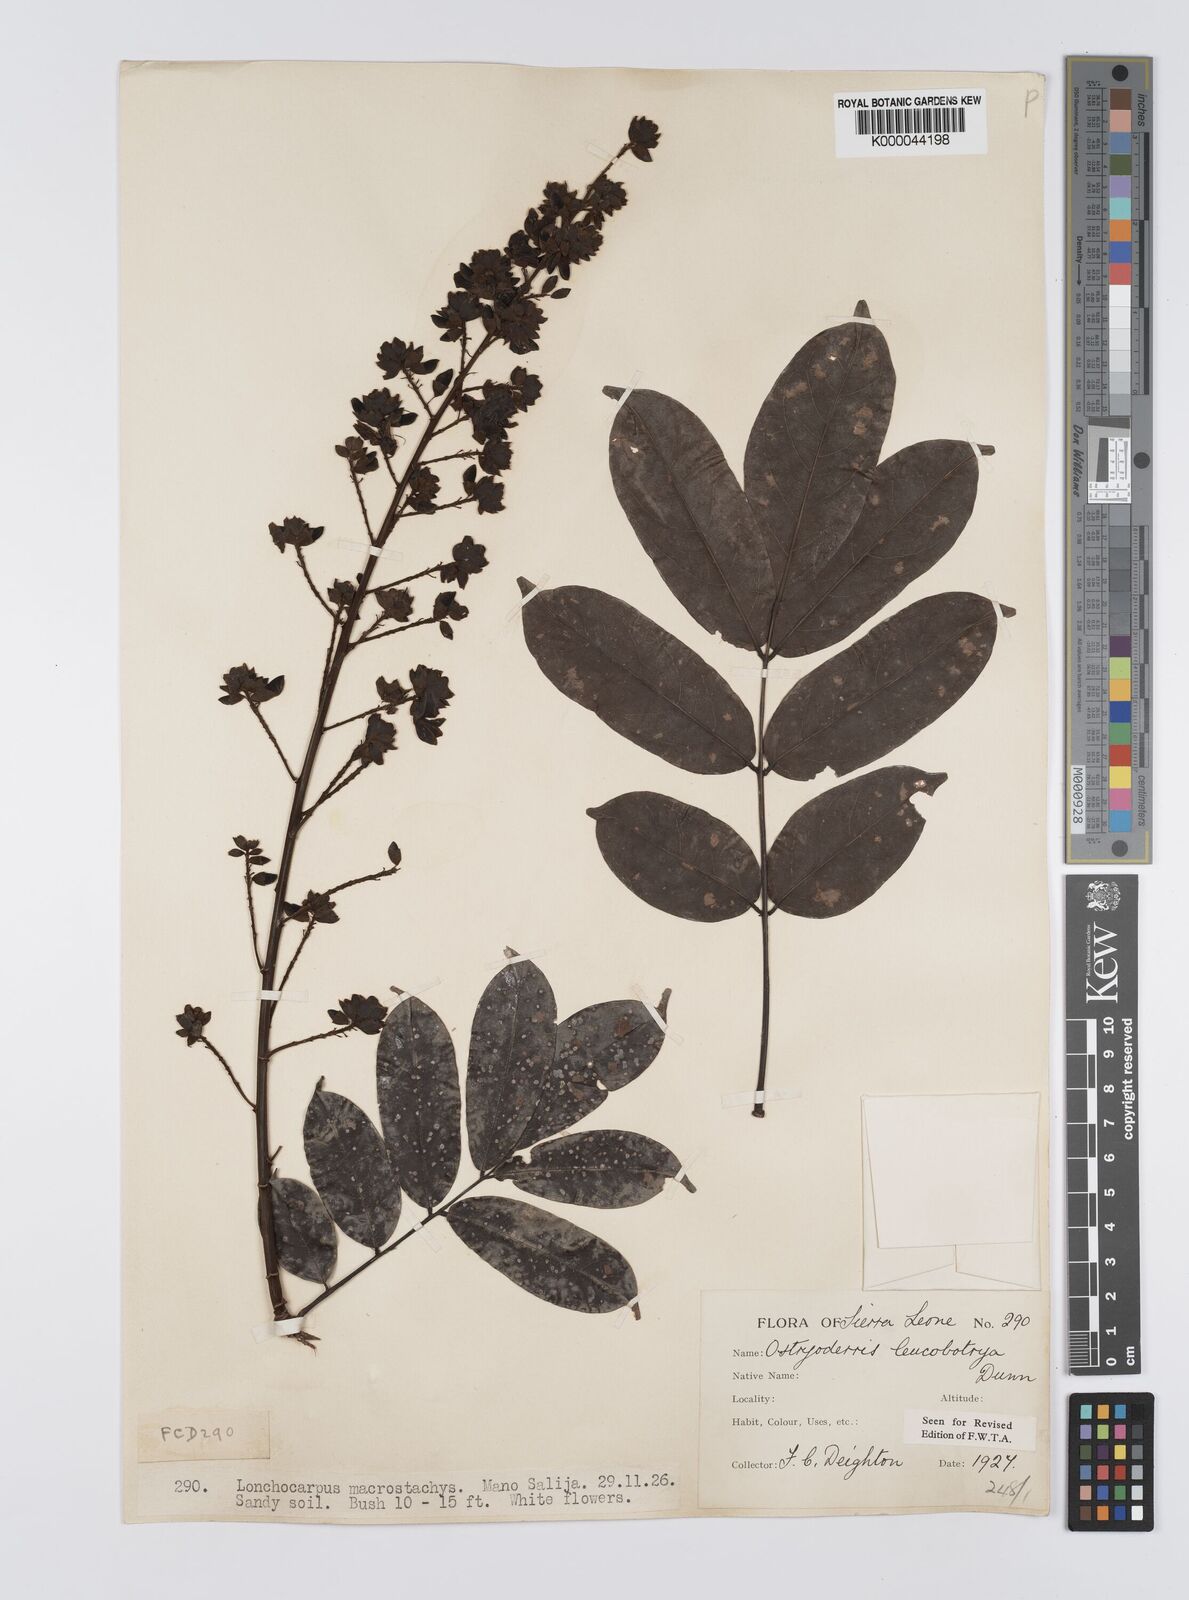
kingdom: Plantae
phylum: Tracheophyta
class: Magnoliopsida
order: Fabales
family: Fabaceae
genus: Aganope
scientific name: Aganope leucobotrya
